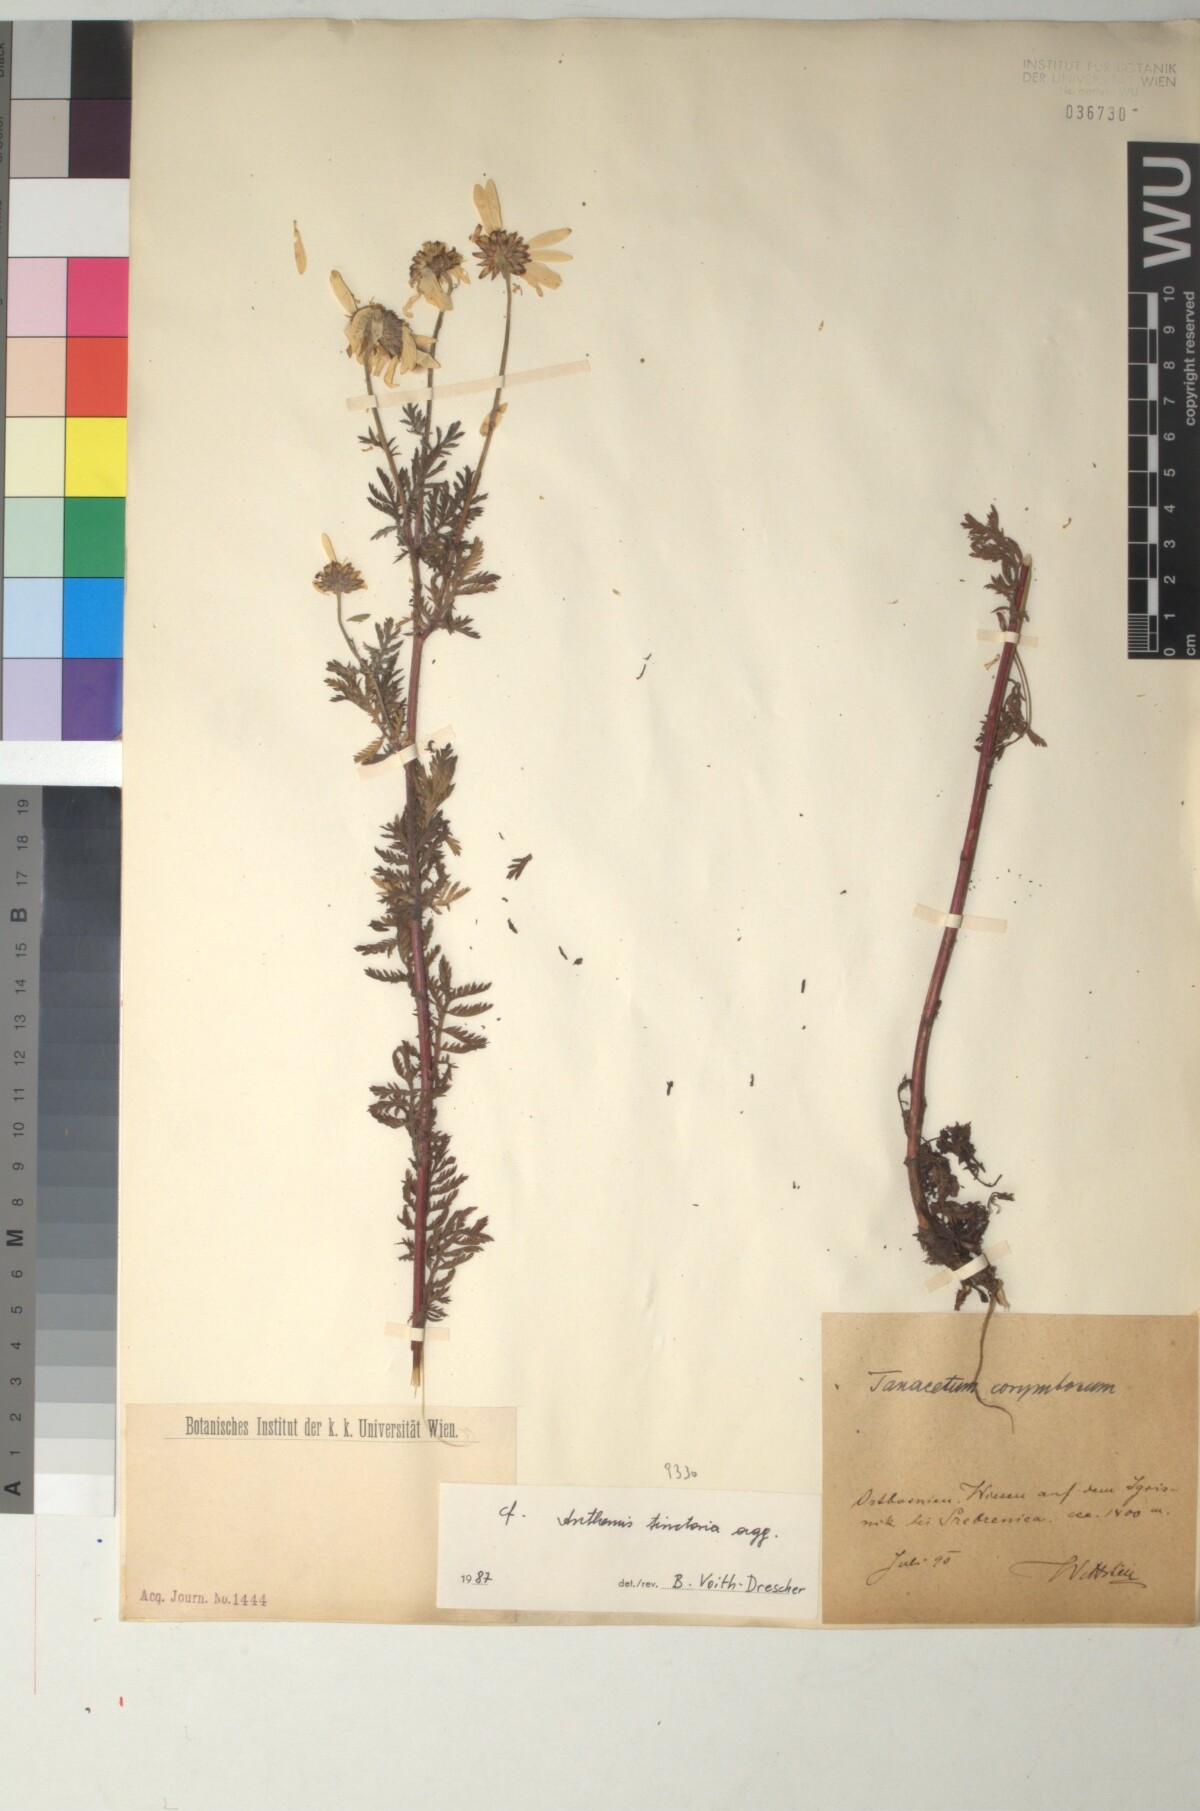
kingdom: Plantae
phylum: Tracheophyta
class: Magnoliopsida
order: Asterales
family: Asteraceae
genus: Cota
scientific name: Cota tinctoria
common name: Golden chamomile
